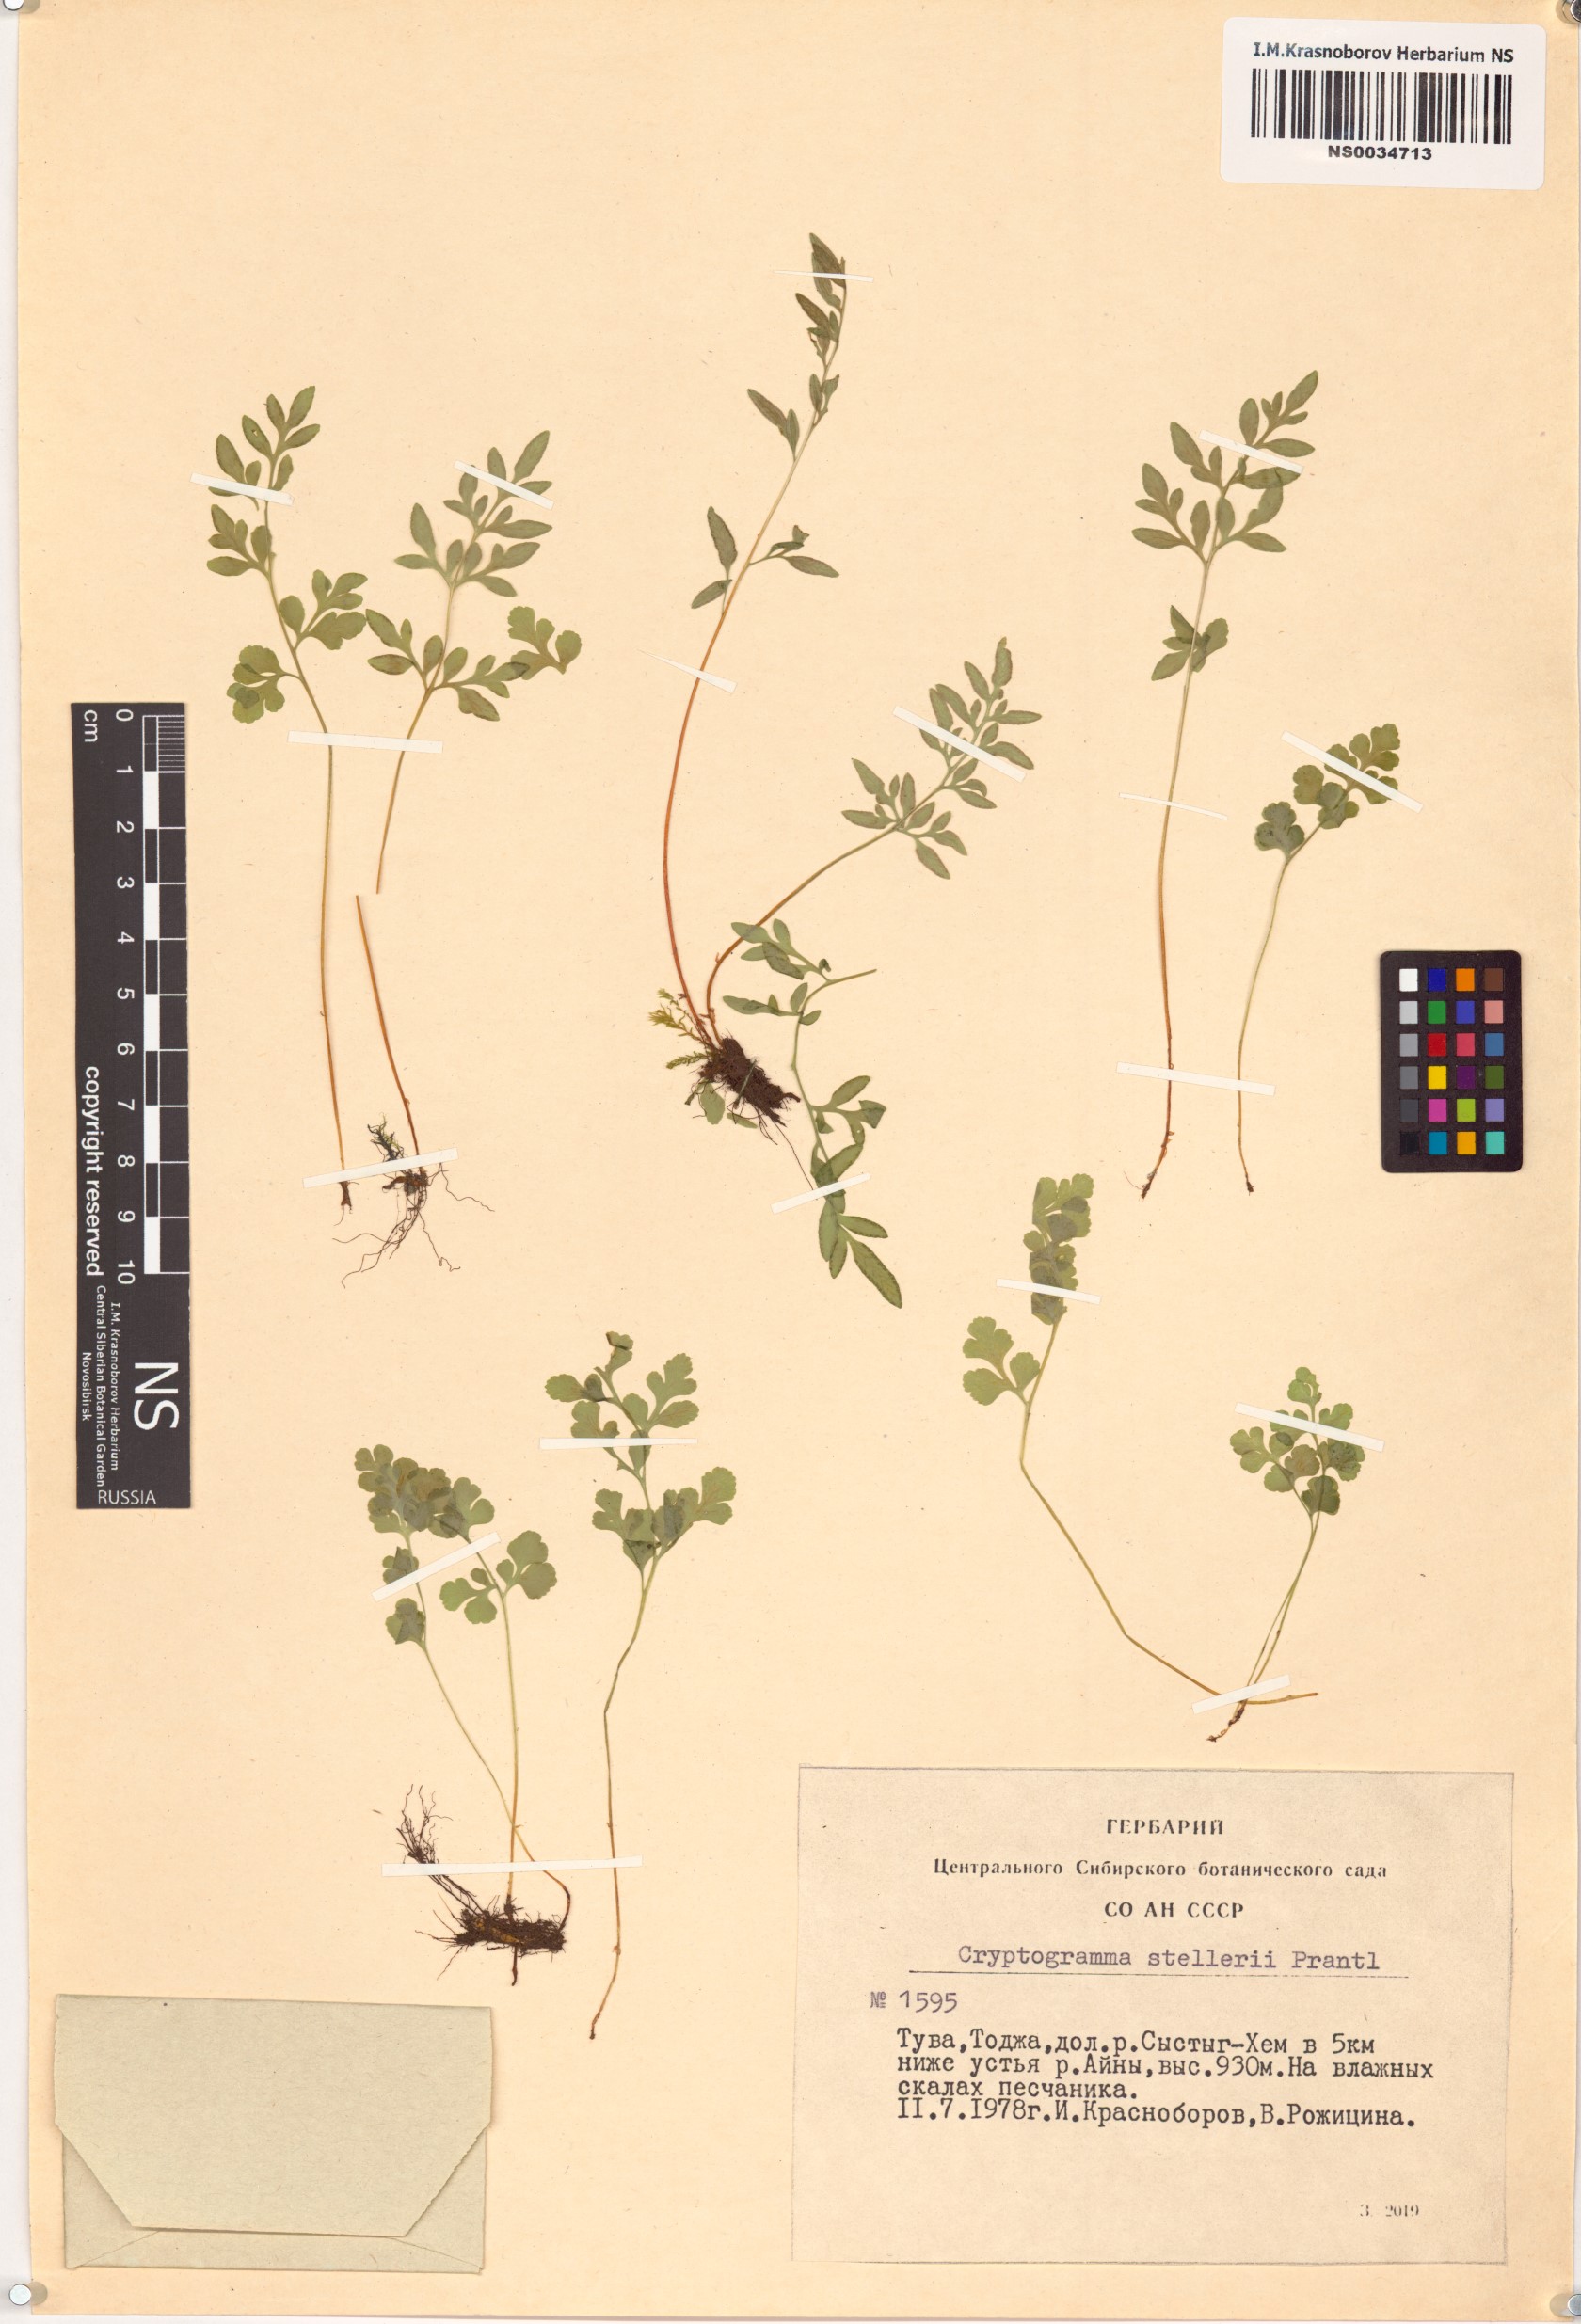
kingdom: Plantae
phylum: Tracheophyta
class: Polypodiopsida
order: Polypodiales
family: Pteridaceae
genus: Cryptogramma
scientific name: Cryptogramma stelleri
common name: Cliff-brake
